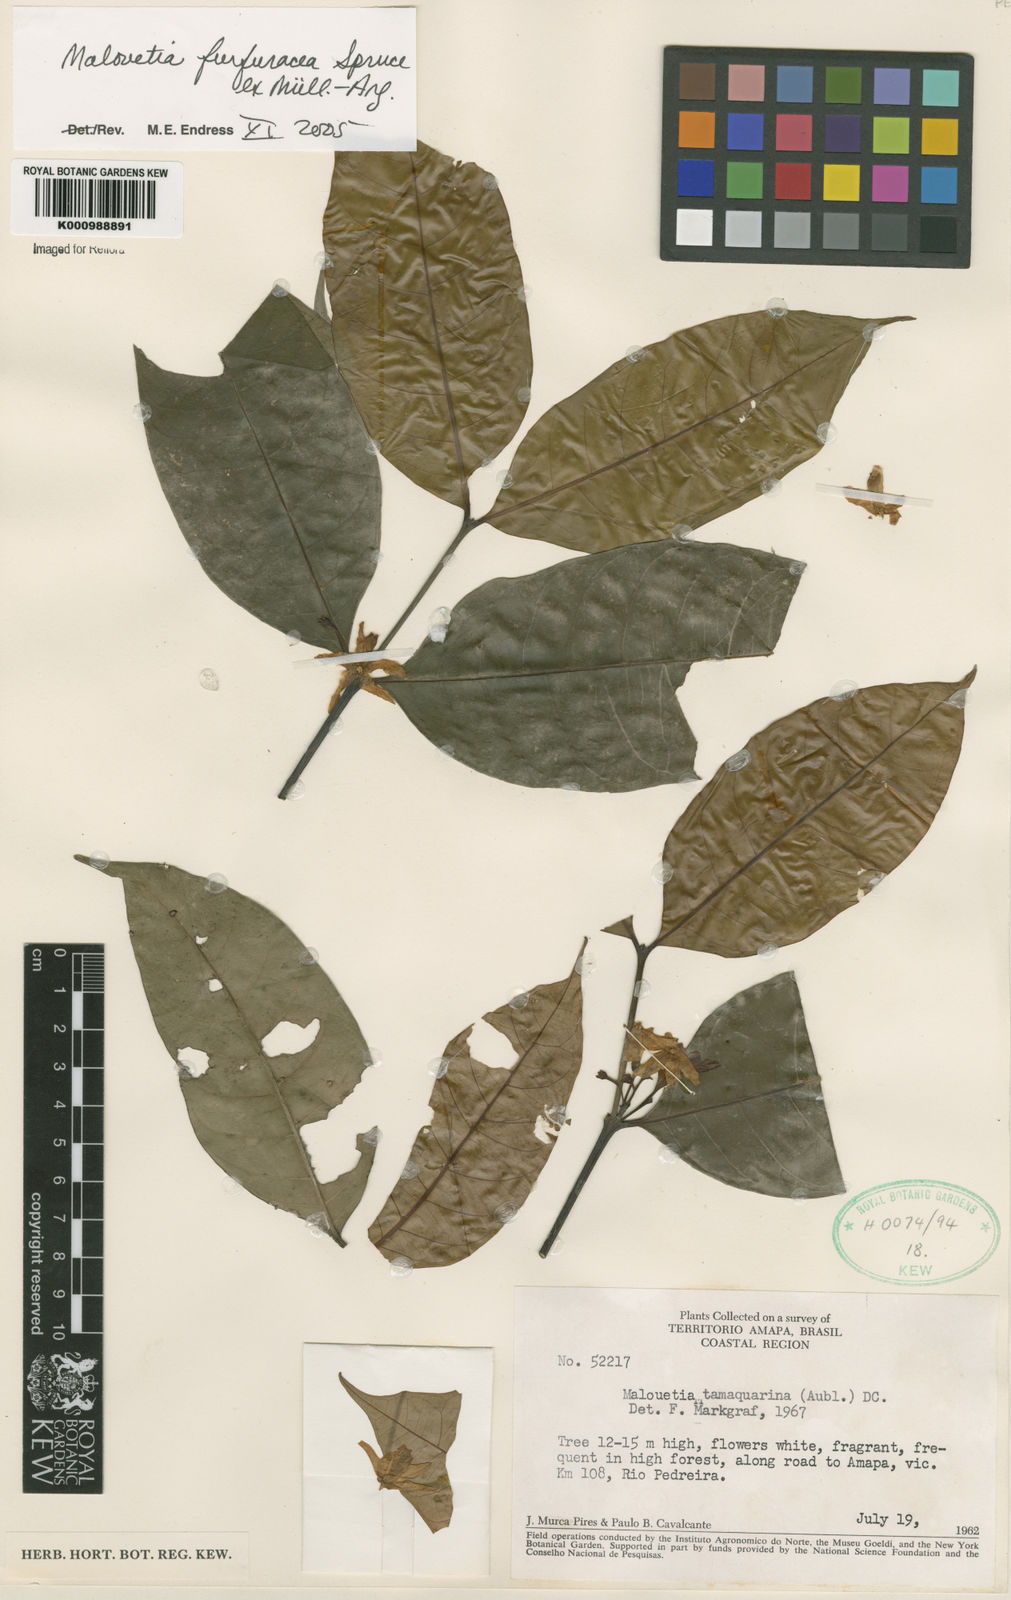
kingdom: Plantae
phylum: Tracheophyta
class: Magnoliopsida
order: Gentianales
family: Apocynaceae
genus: Malouetia
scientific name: Malouetia
